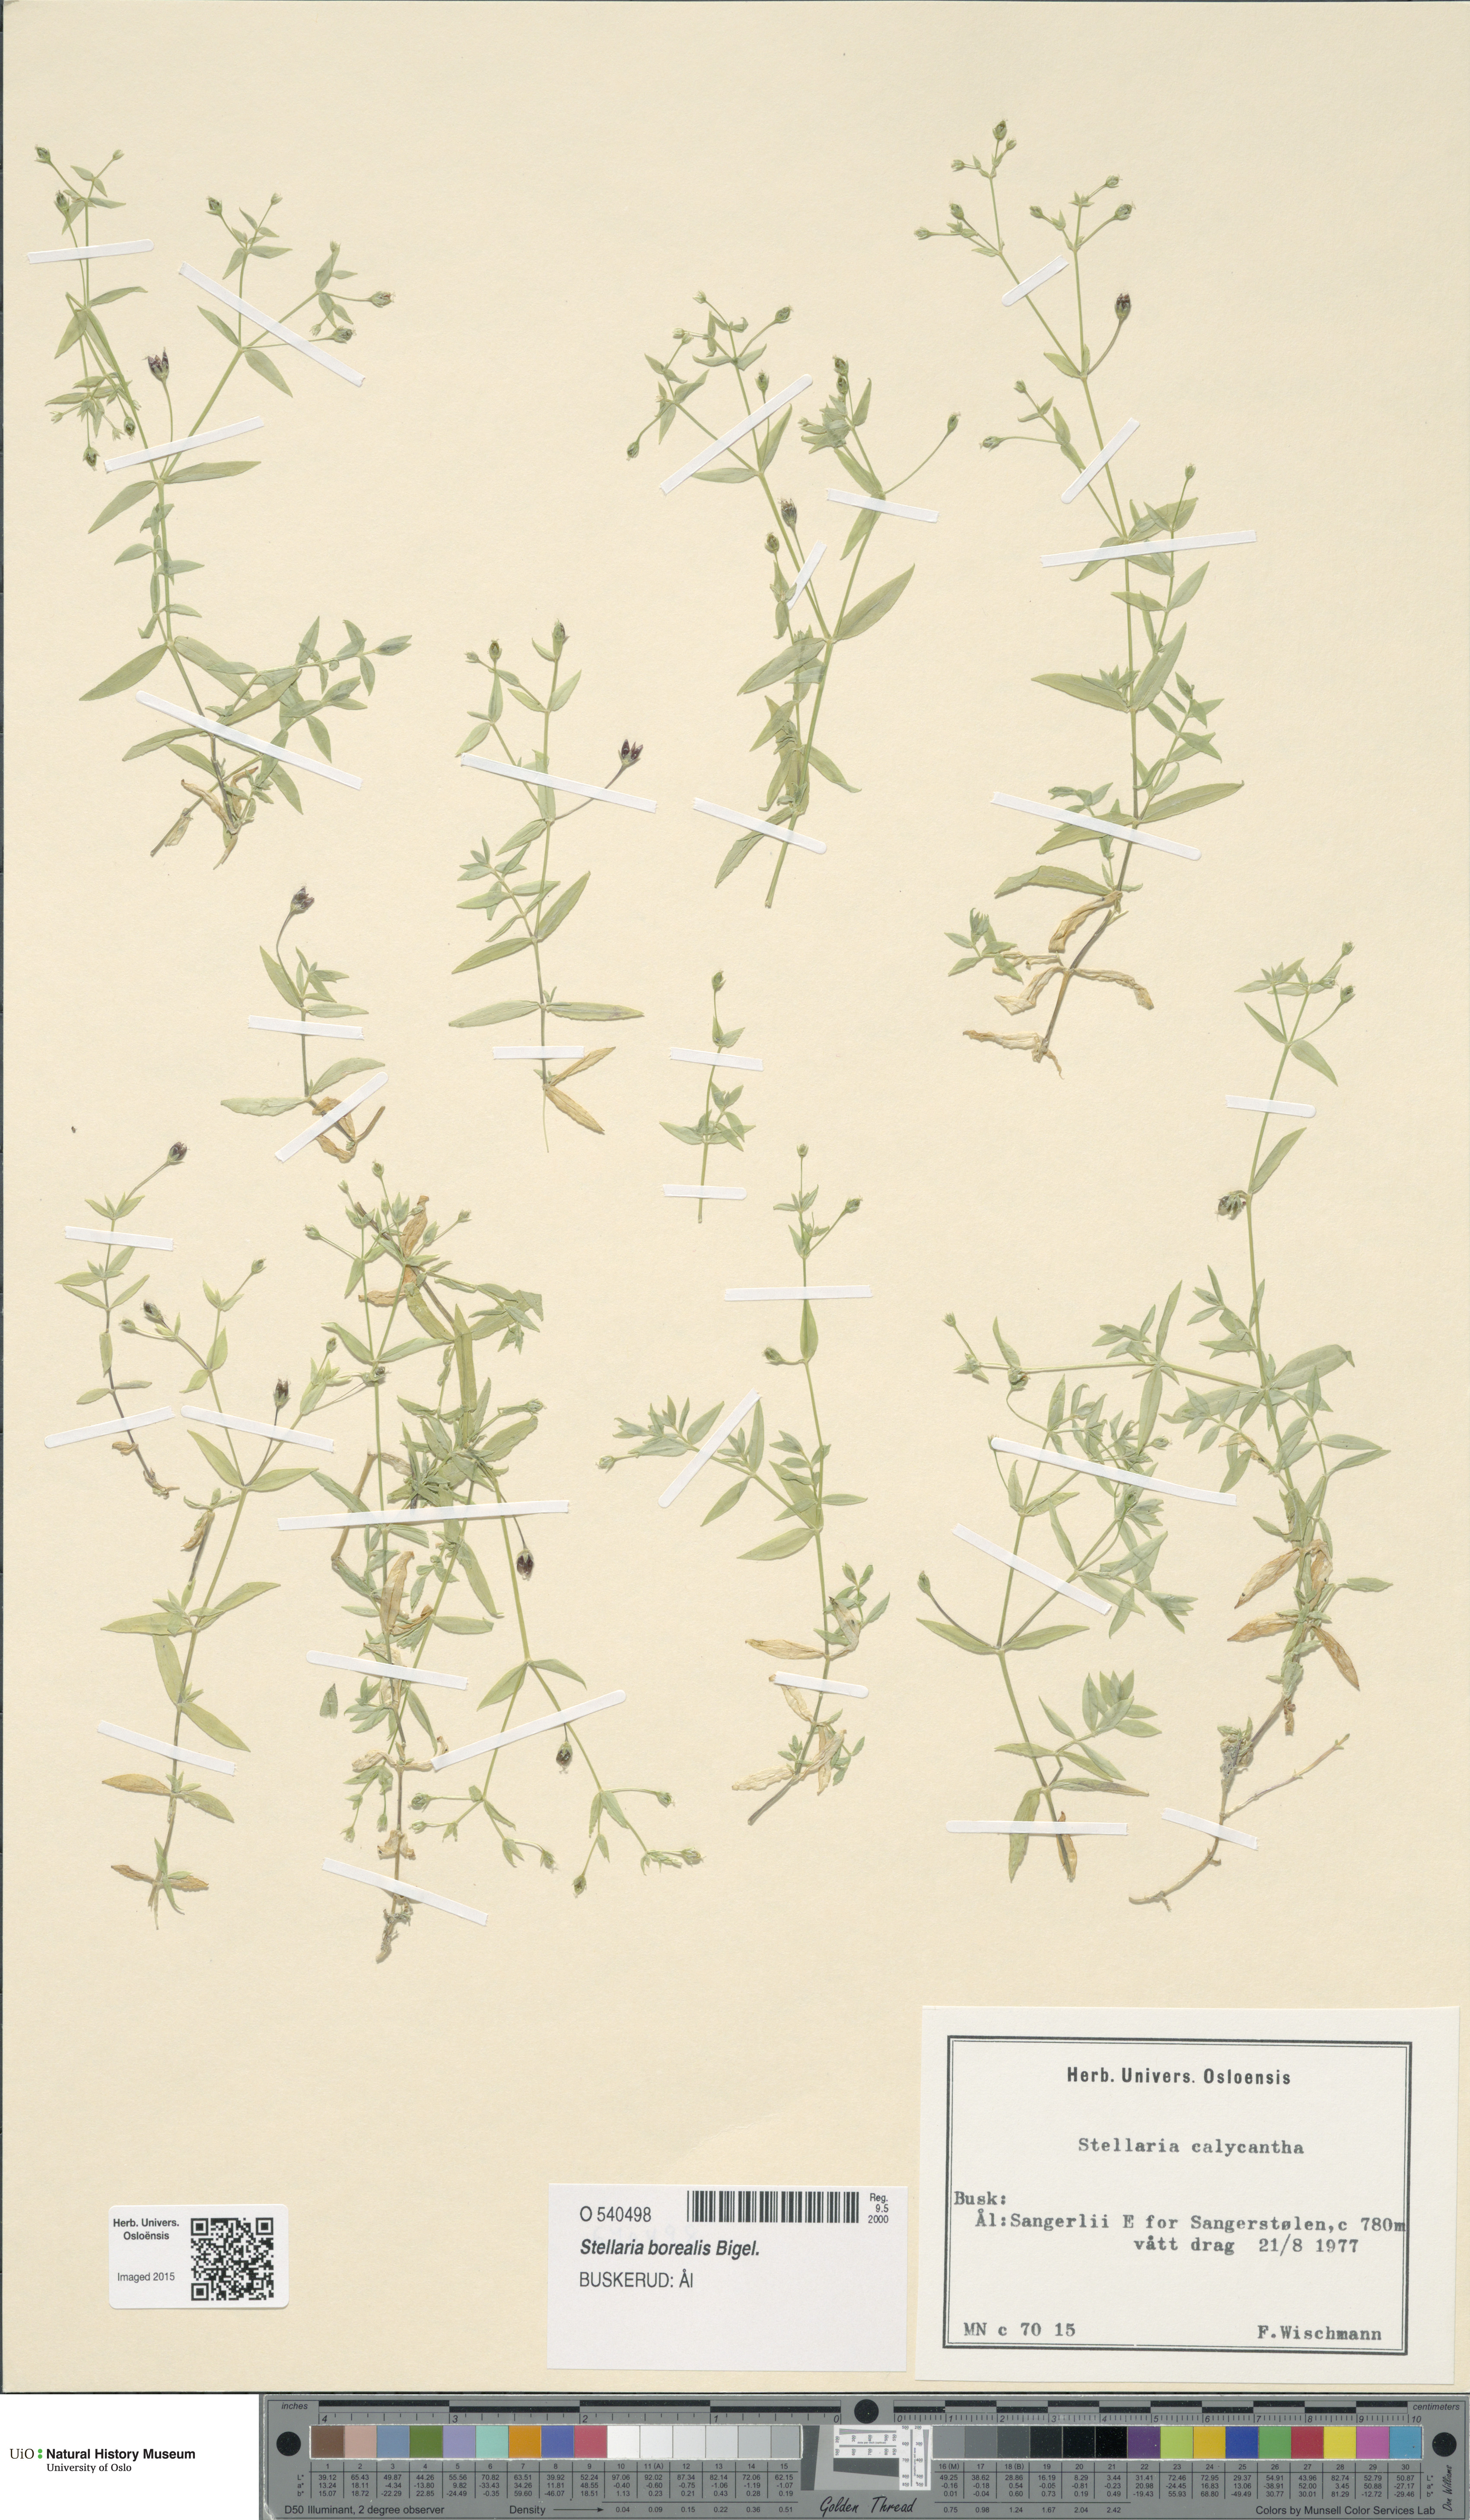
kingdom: Plantae
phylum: Tracheophyta
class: Magnoliopsida
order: Caryophyllales
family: Caryophyllaceae
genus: Stellaria
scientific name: Stellaria borealis
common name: Boreal starwort
